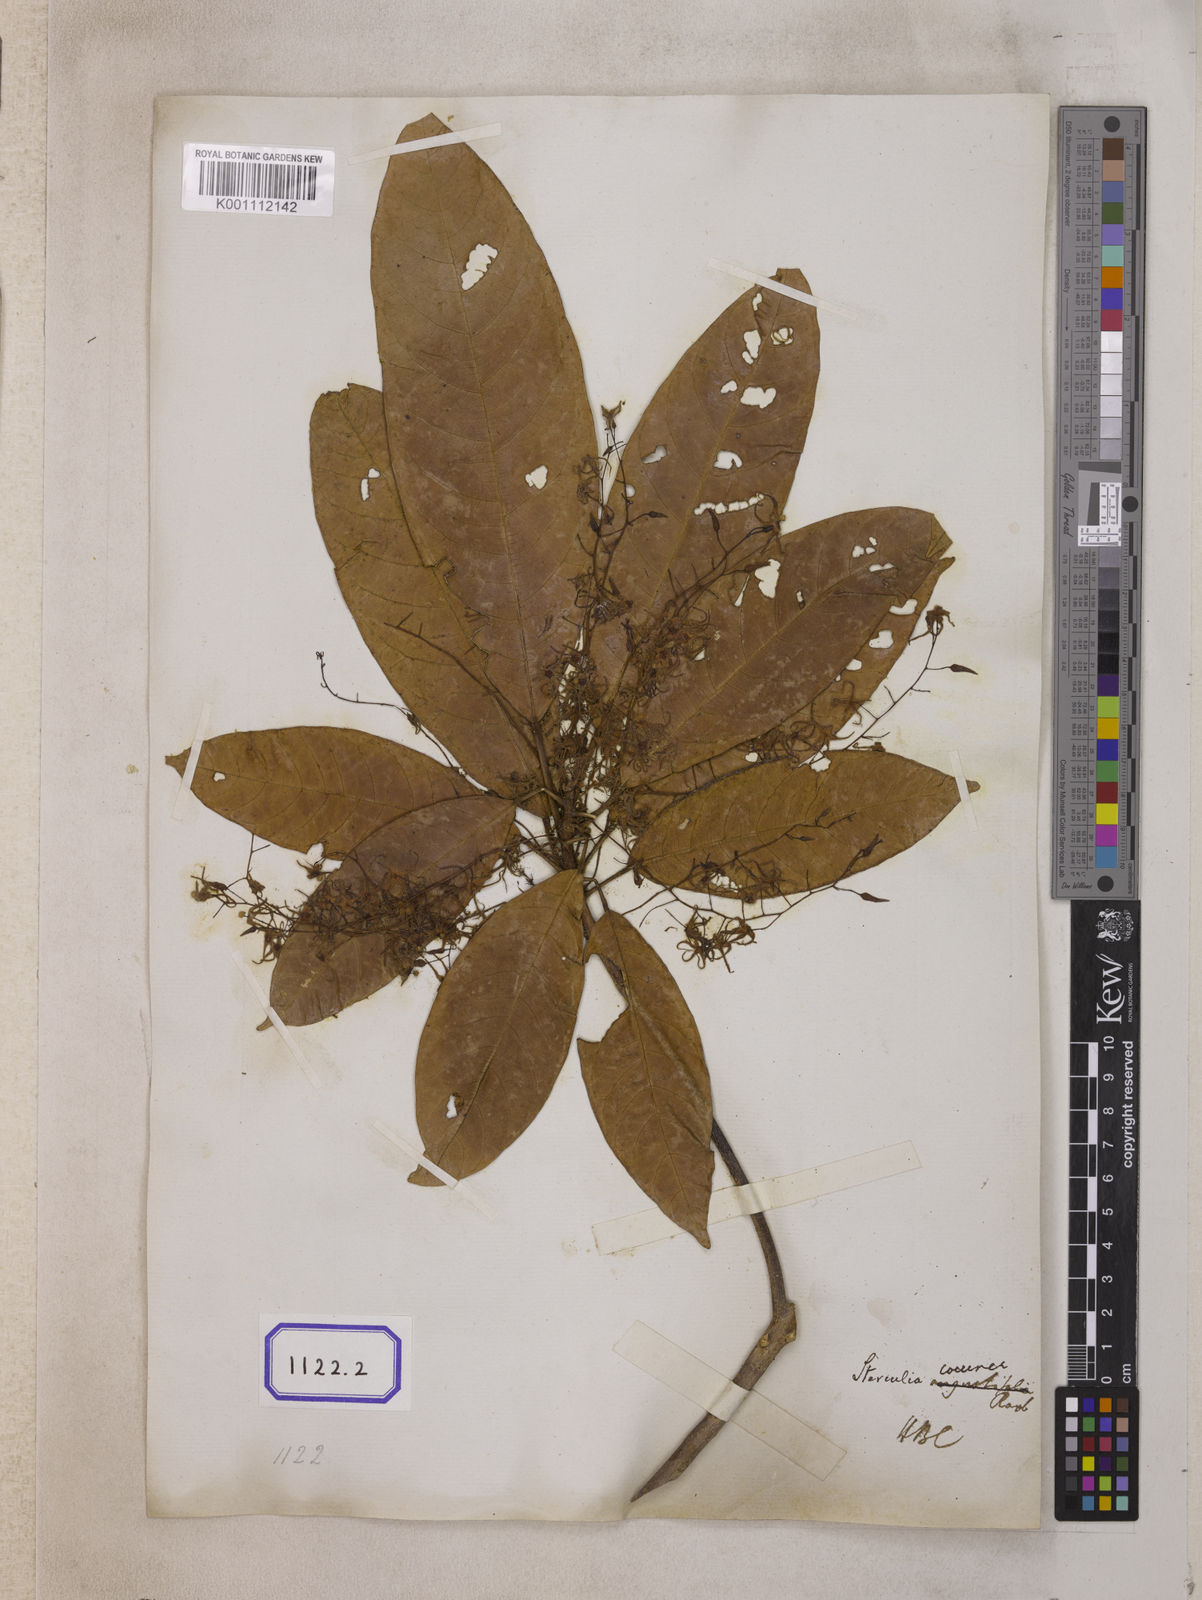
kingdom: Plantae
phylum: Tracheophyta
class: Magnoliopsida
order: Malvales
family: Malvaceae
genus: Sterculia
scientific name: Sterculia
